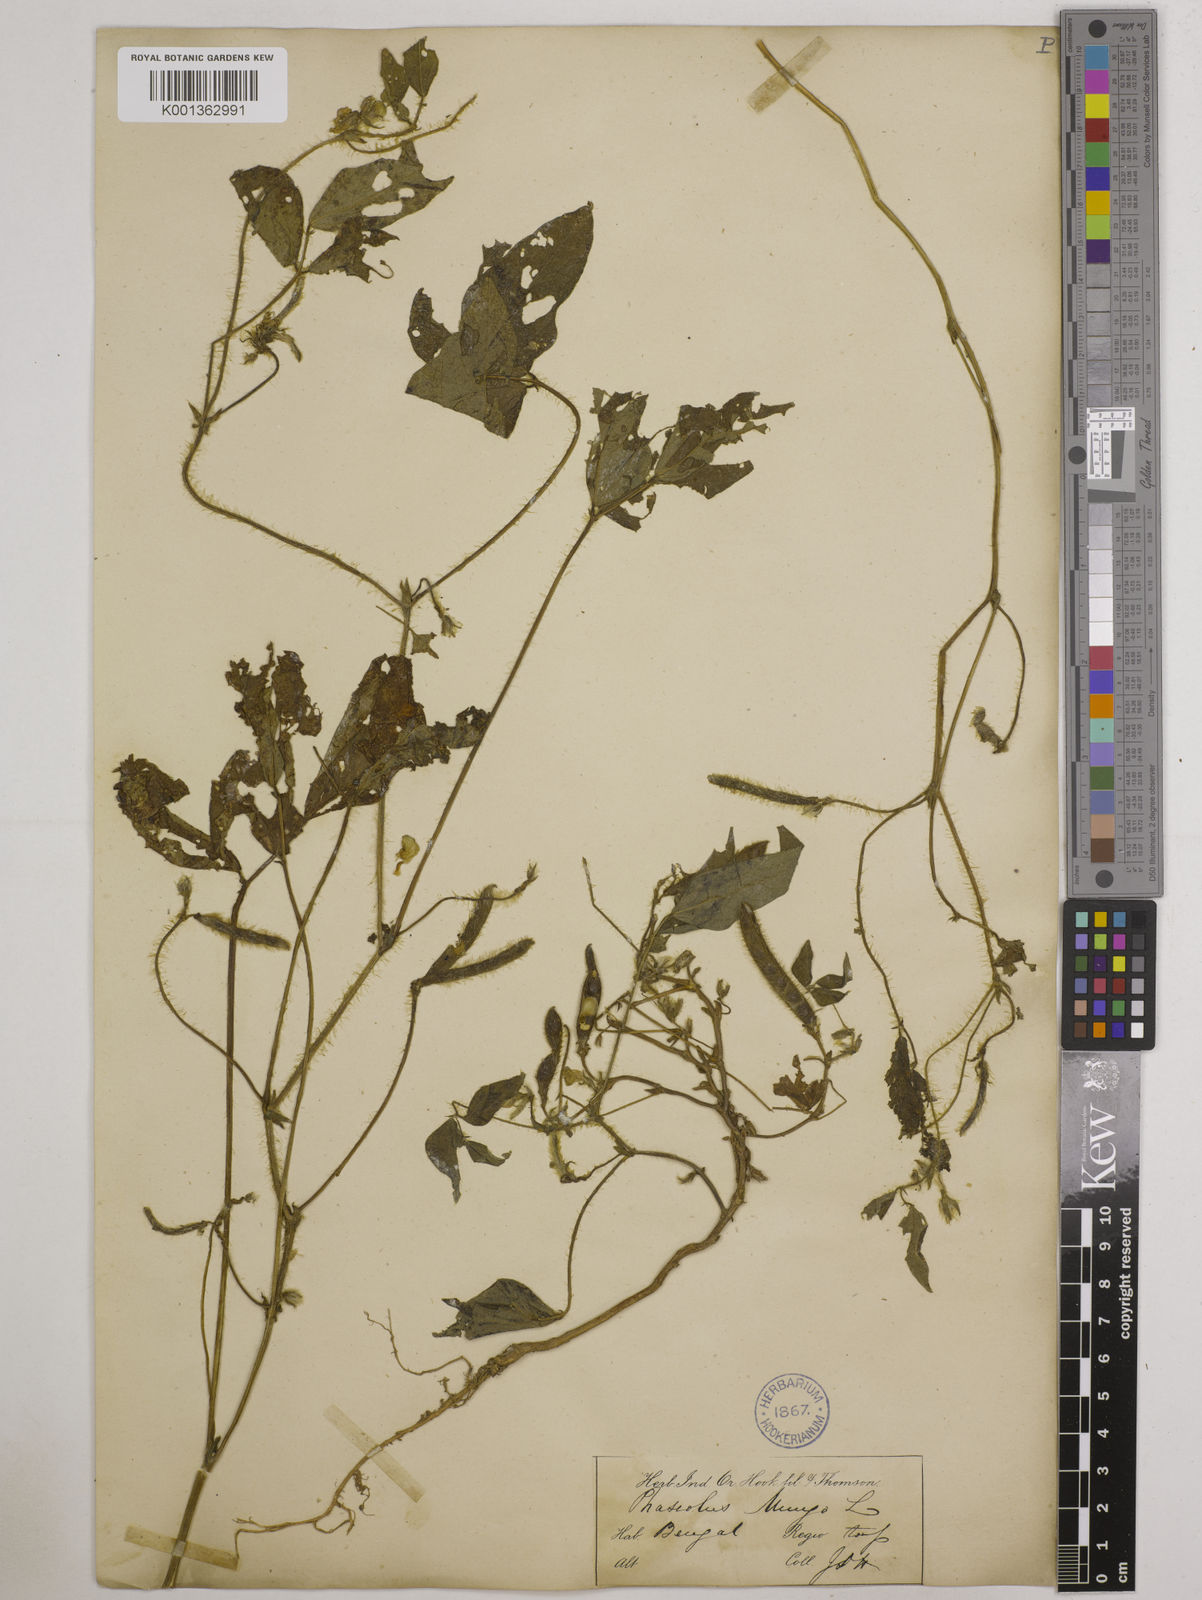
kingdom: Plantae
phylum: Tracheophyta
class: Magnoliopsida
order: Fabales
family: Fabaceae
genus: Vigna
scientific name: Vigna mungo
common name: Black gram
